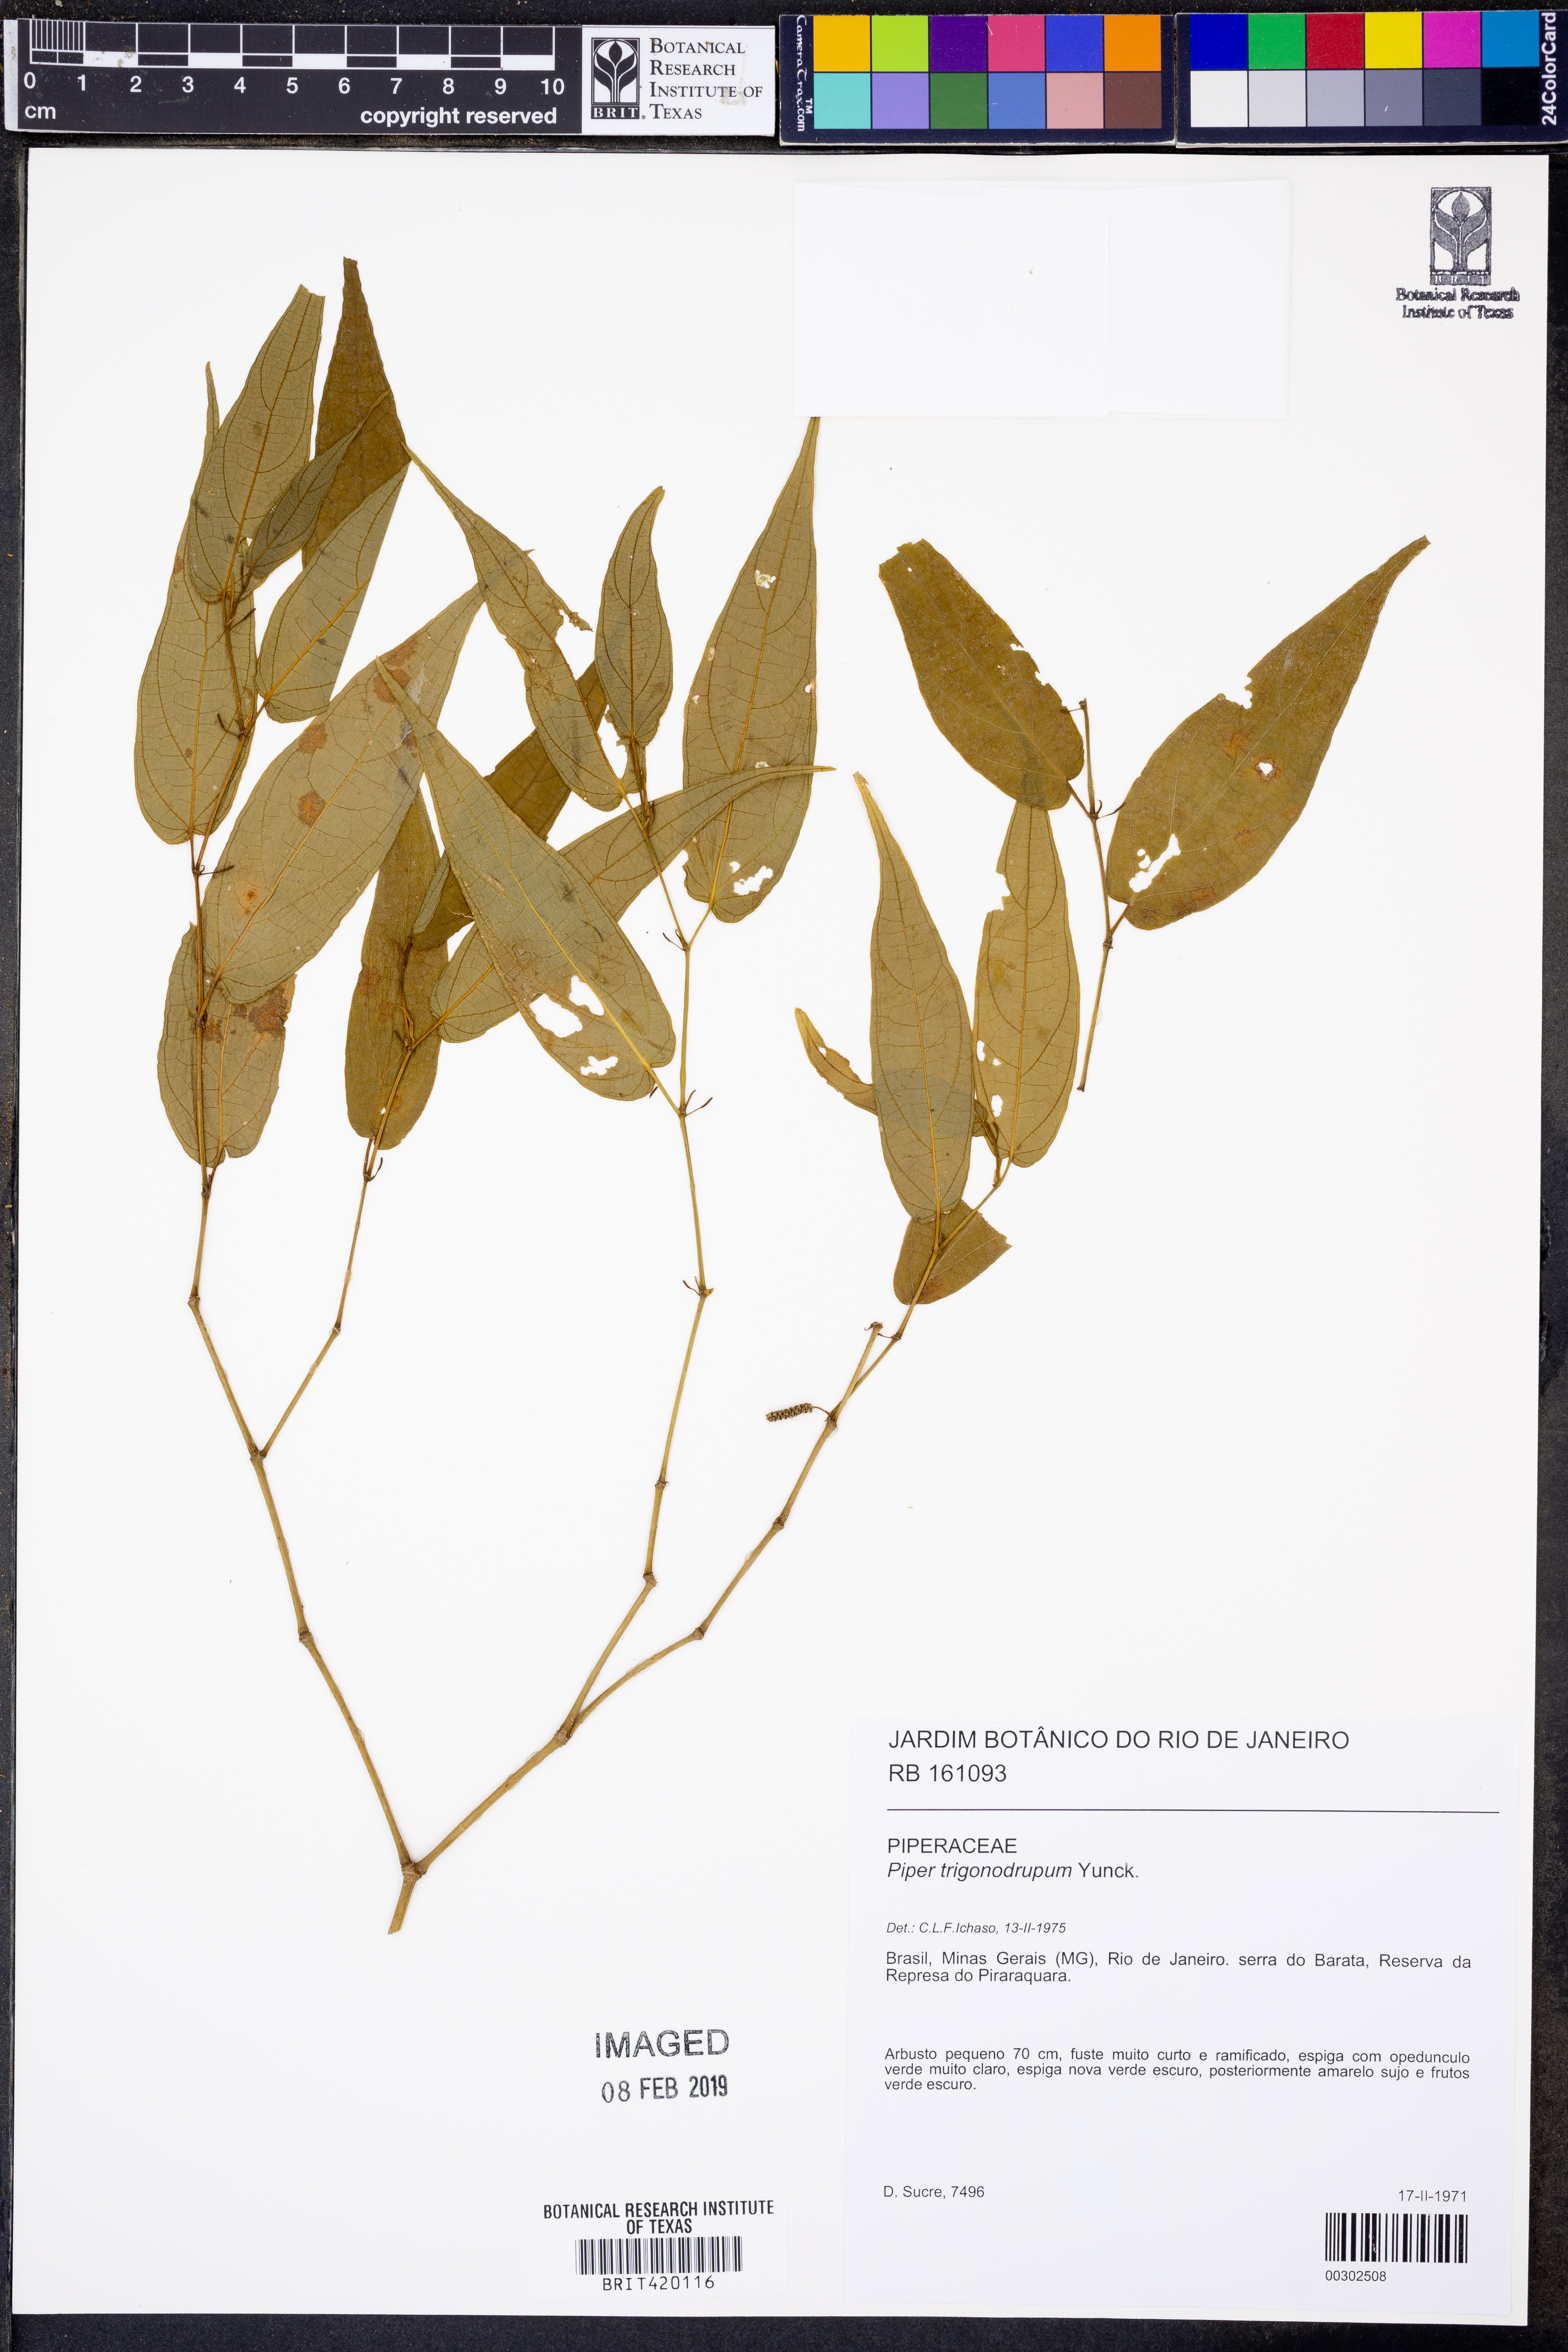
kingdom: Plantae
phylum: Tracheophyta
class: Magnoliopsida
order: Piperales
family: Piperaceae
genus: Piper
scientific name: Piper trigonodrupum
